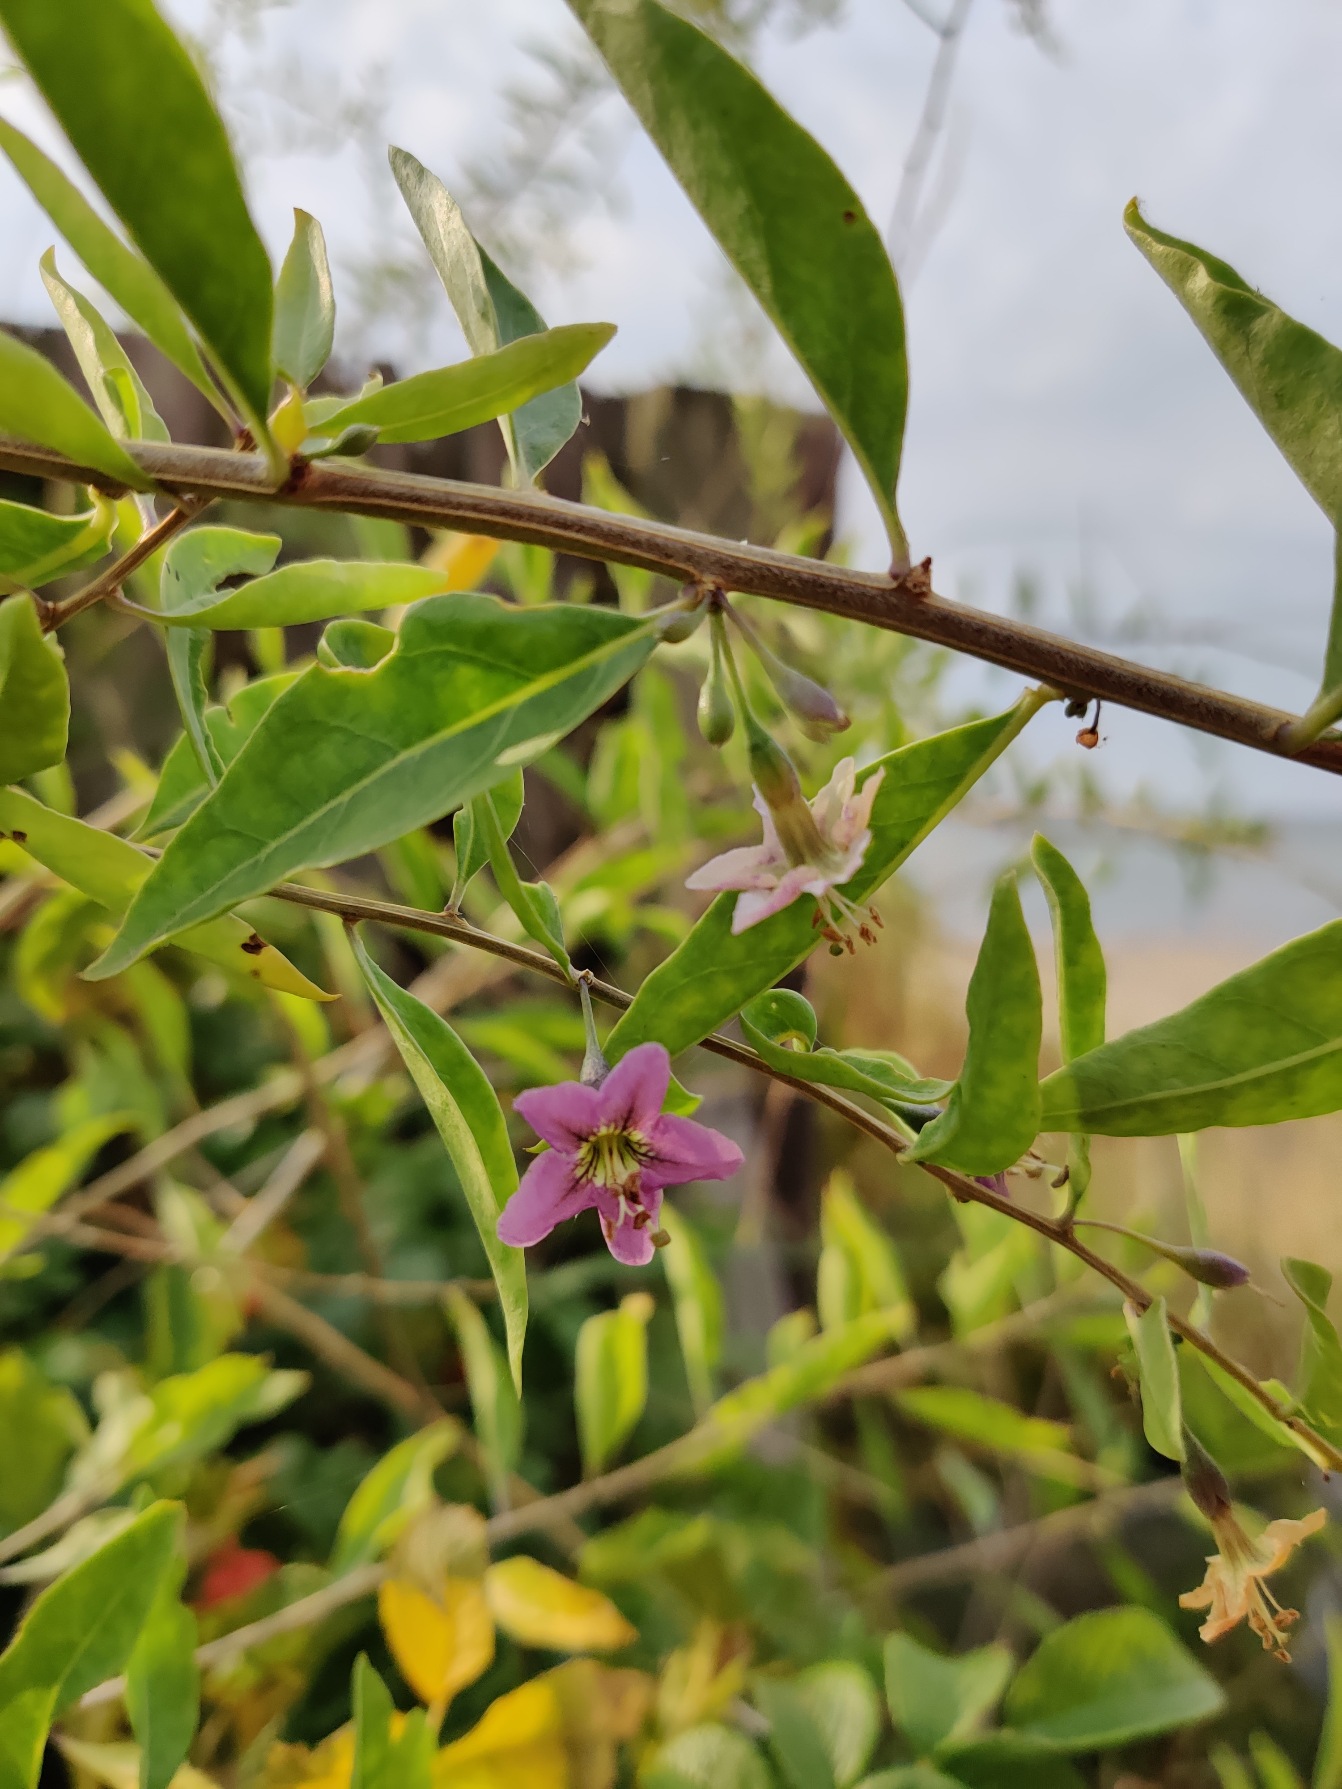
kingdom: Plantae
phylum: Tracheophyta
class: Magnoliopsida
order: Solanales
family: Solanaceae
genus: Lycium
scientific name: Lycium barbarum
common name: Bukketorn
